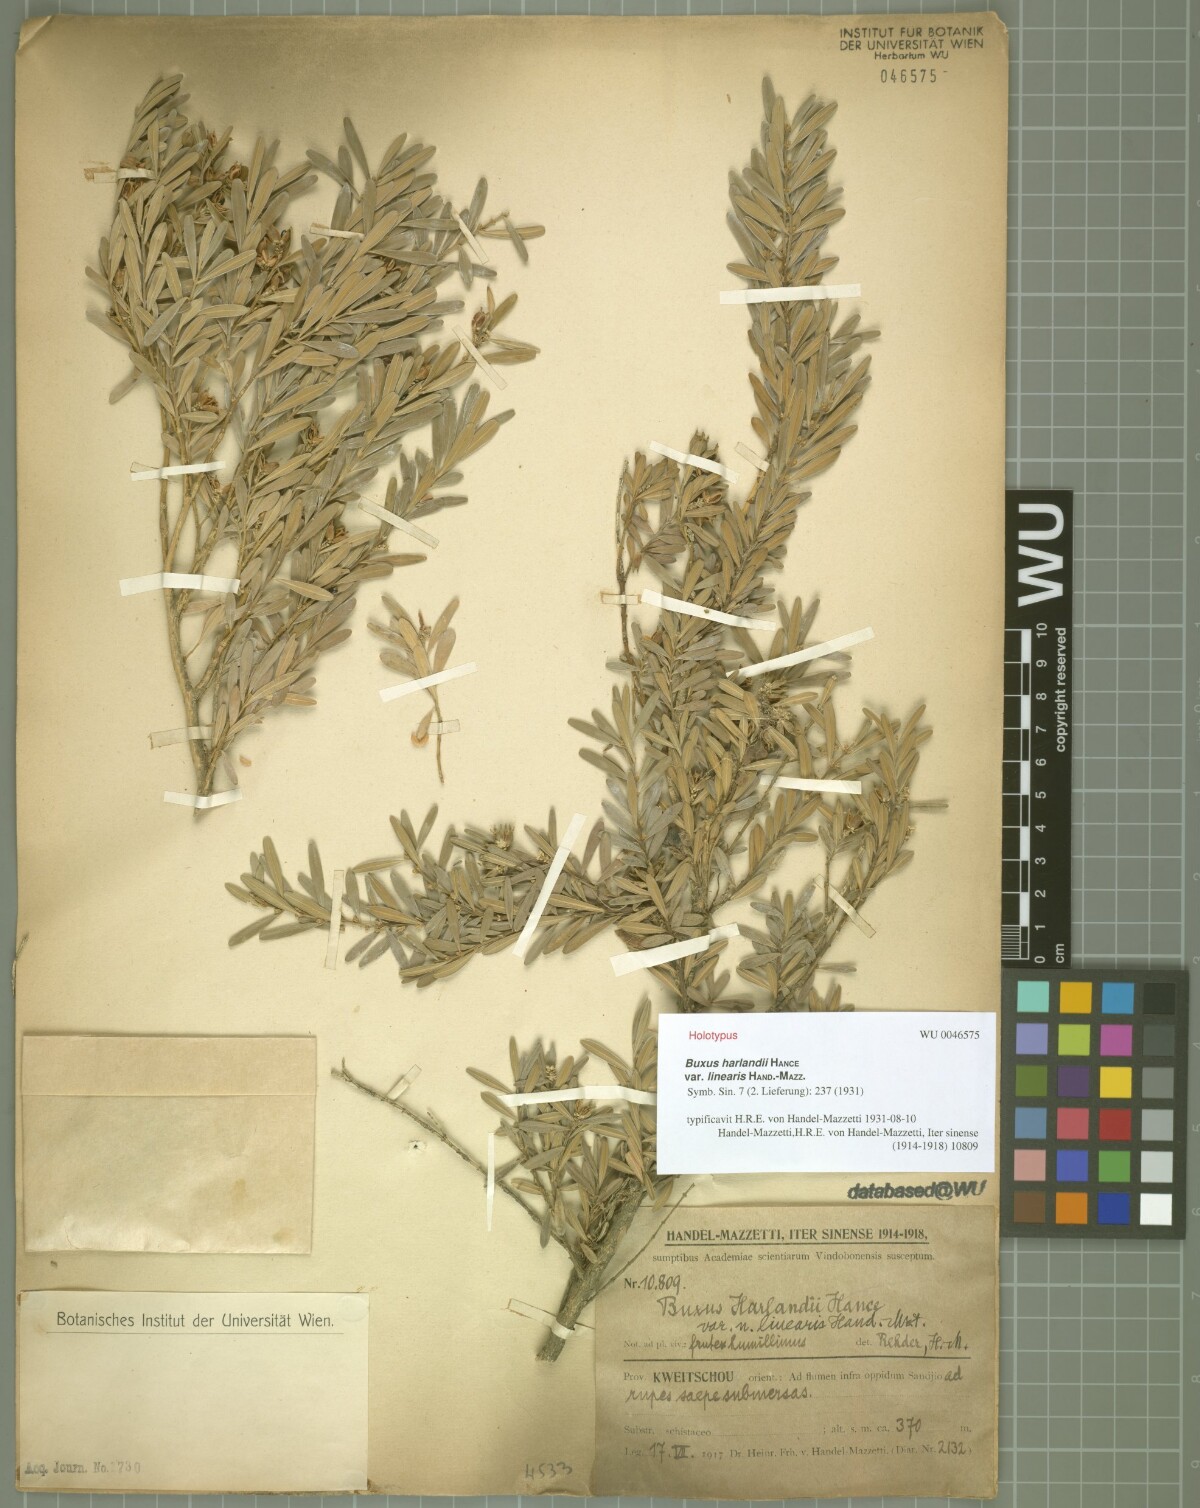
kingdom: Plantae
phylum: Tracheophyta
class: Magnoliopsida
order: Buxales
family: Buxaceae
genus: Buxus
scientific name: Buxus cephalantha
